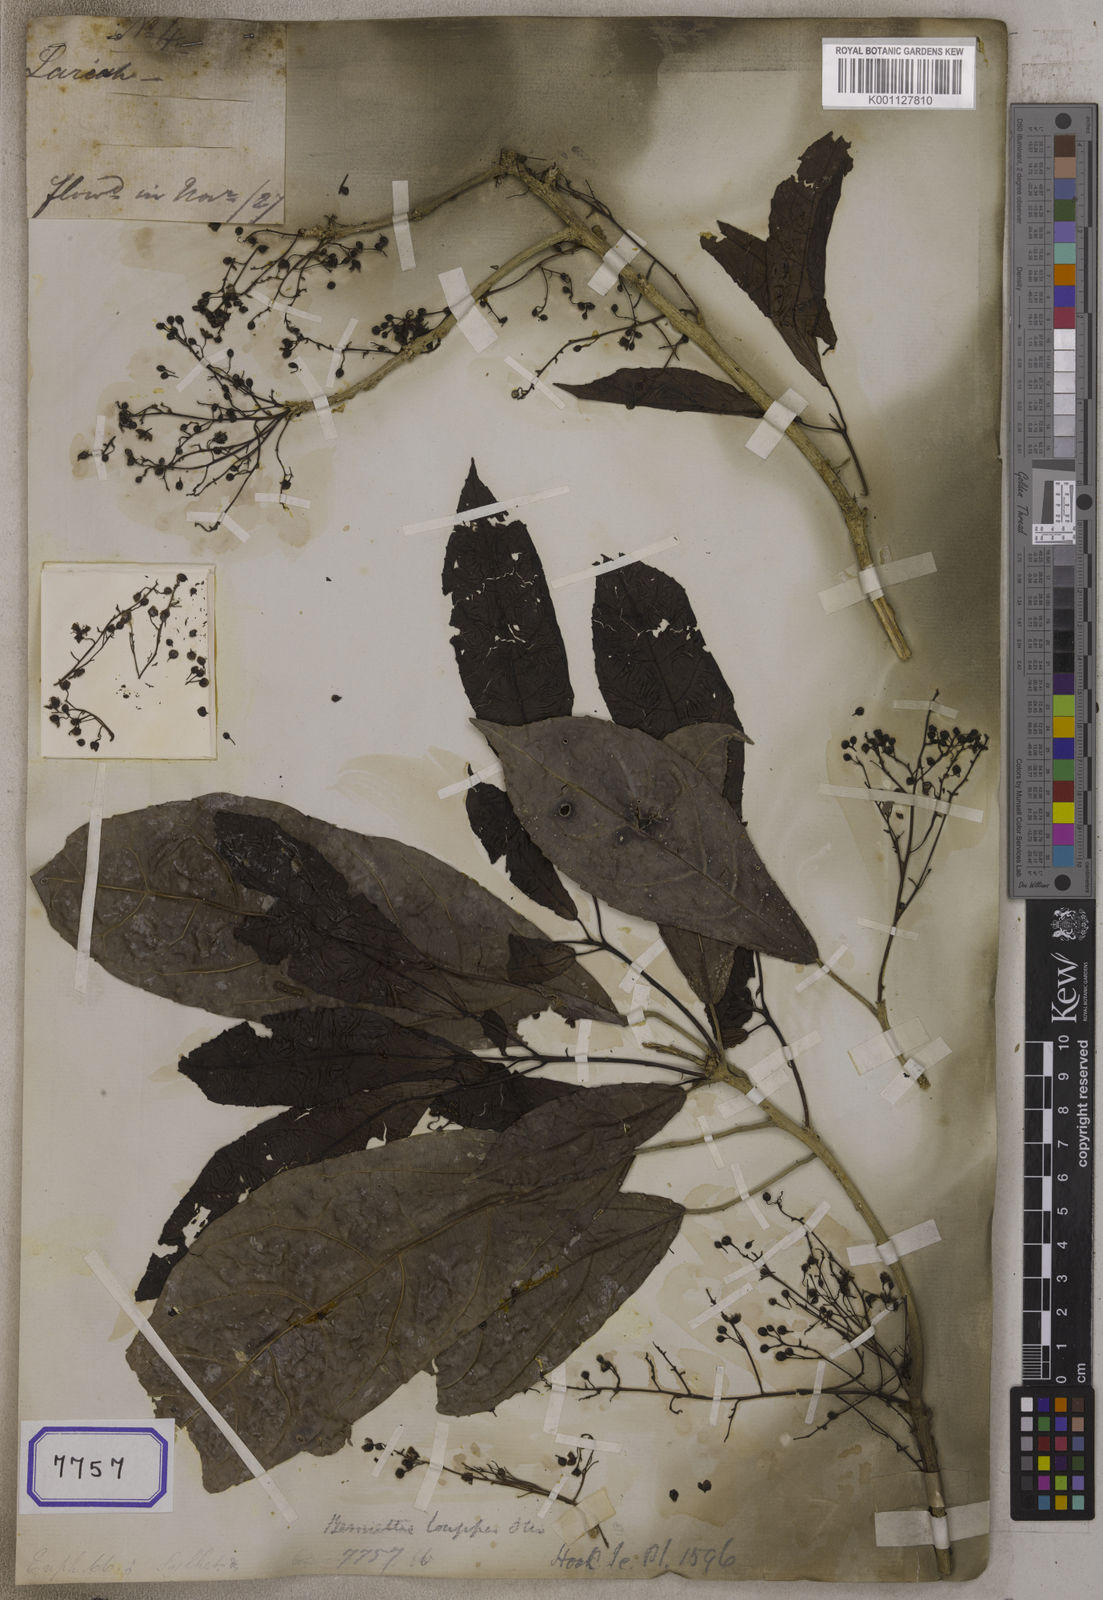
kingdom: Plantae
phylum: Tracheophyta
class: Magnoliopsida
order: Malpighiales
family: Euphorbiaceae
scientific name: Euphorbiaceae
